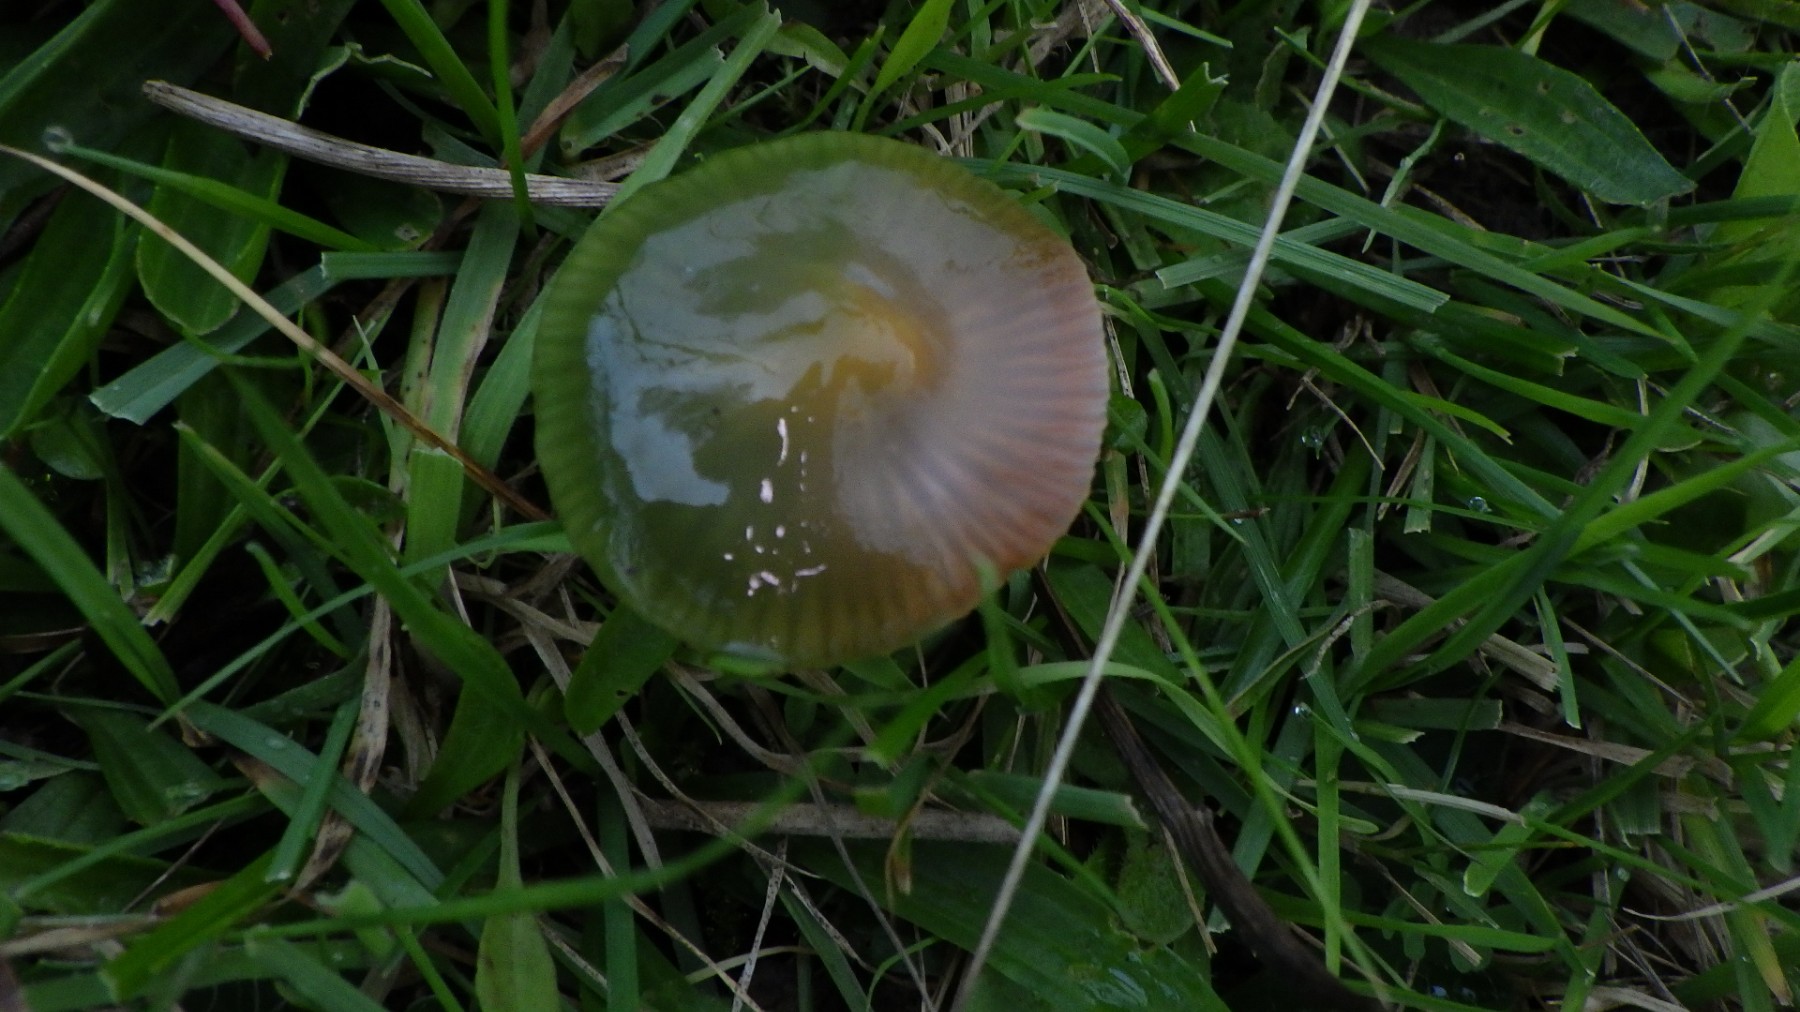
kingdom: Fungi
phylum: Basidiomycota
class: Agaricomycetes
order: Agaricales
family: Hygrophoraceae
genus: Gliophorus
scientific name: Gliophorus psittacinus
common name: papegøje-vokshat
